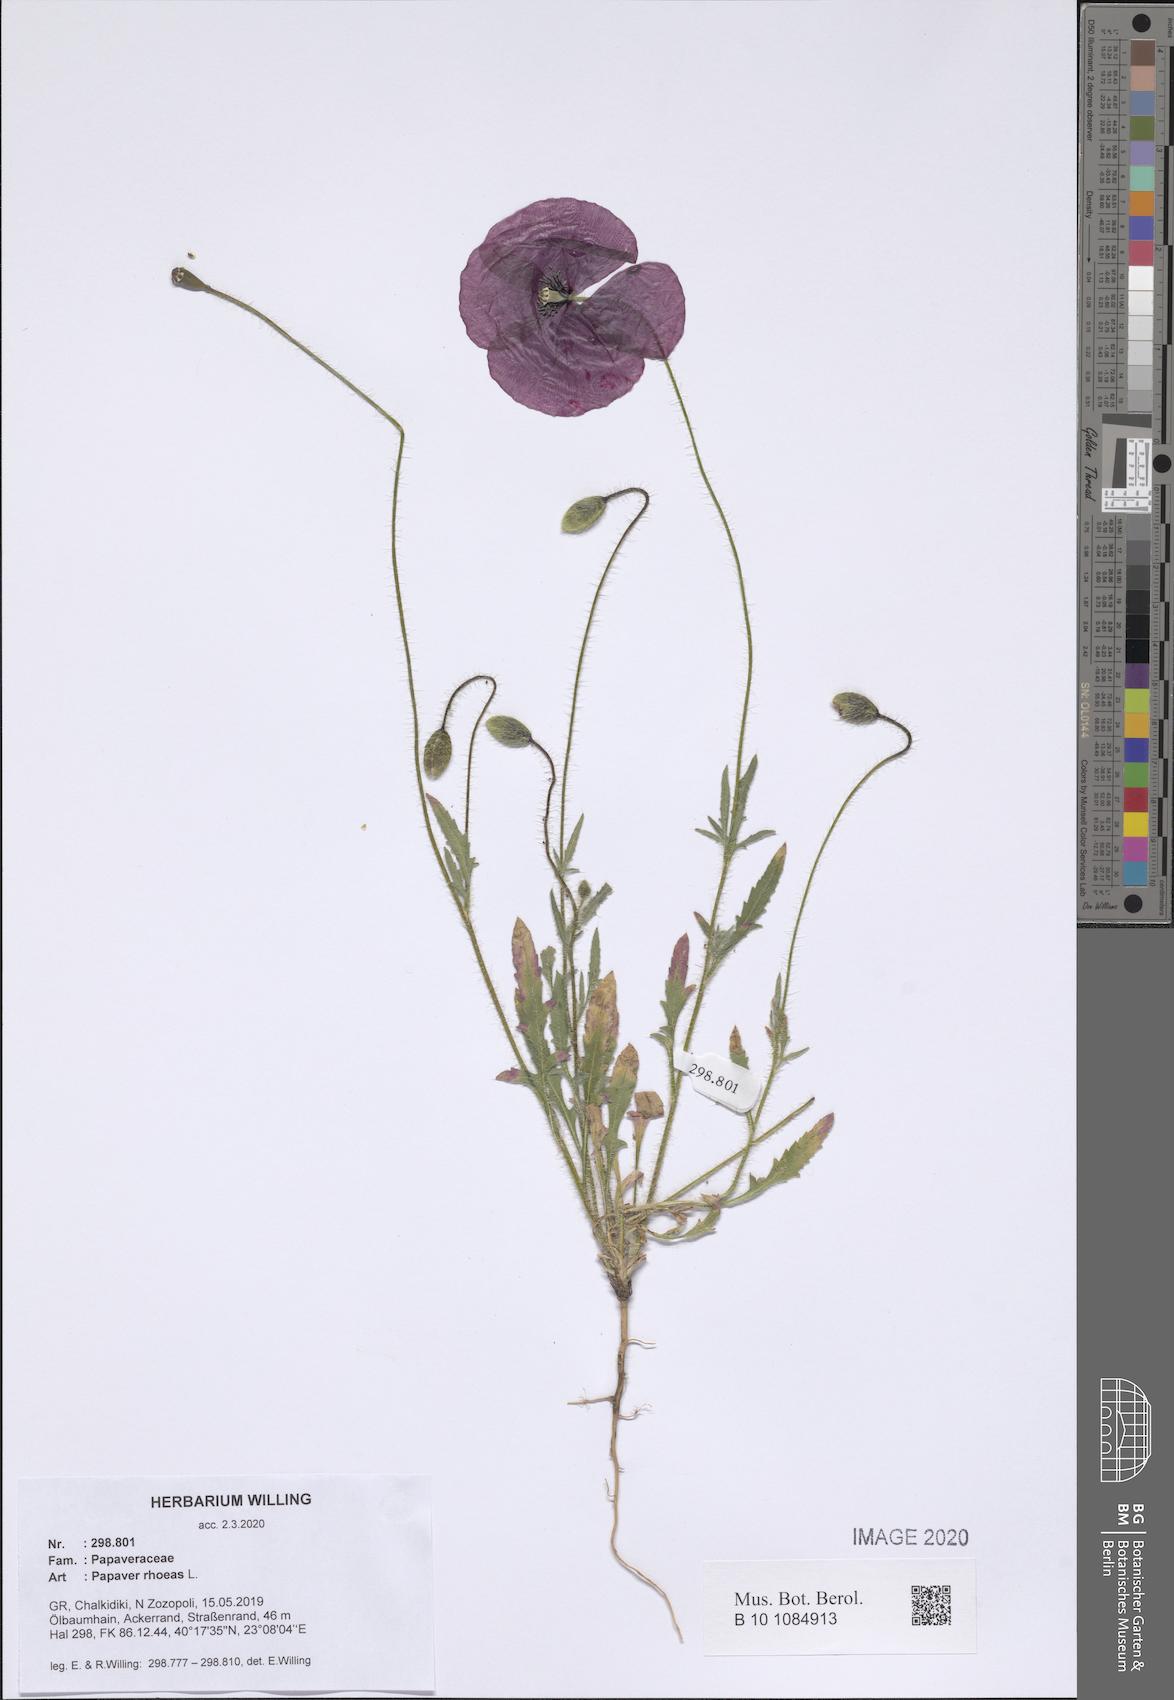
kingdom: Plantae
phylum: Tracheophyta
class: Magnoliopsida
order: Ranunculales
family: Papaveraceae
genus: Papaver
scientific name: Papaver rhoeas
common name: Corn poppy
